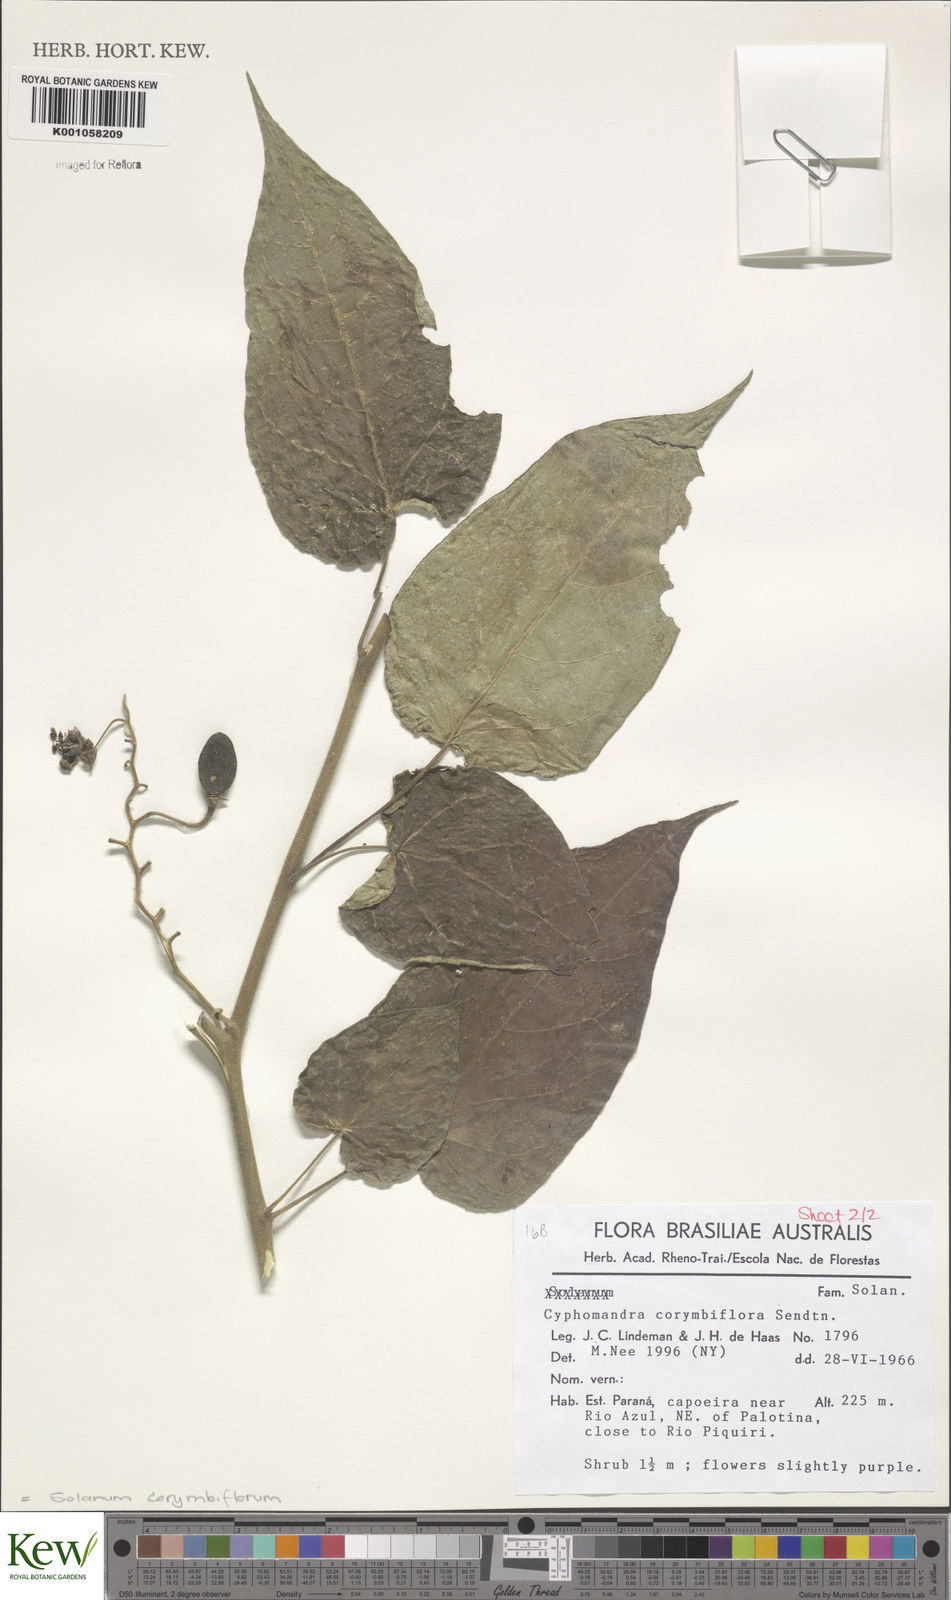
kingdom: Plantae
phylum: Tracheophyta
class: Magnoliopsida
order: Solanales
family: Solanaceae
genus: Solanum
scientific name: Solanum corymbiflorum
